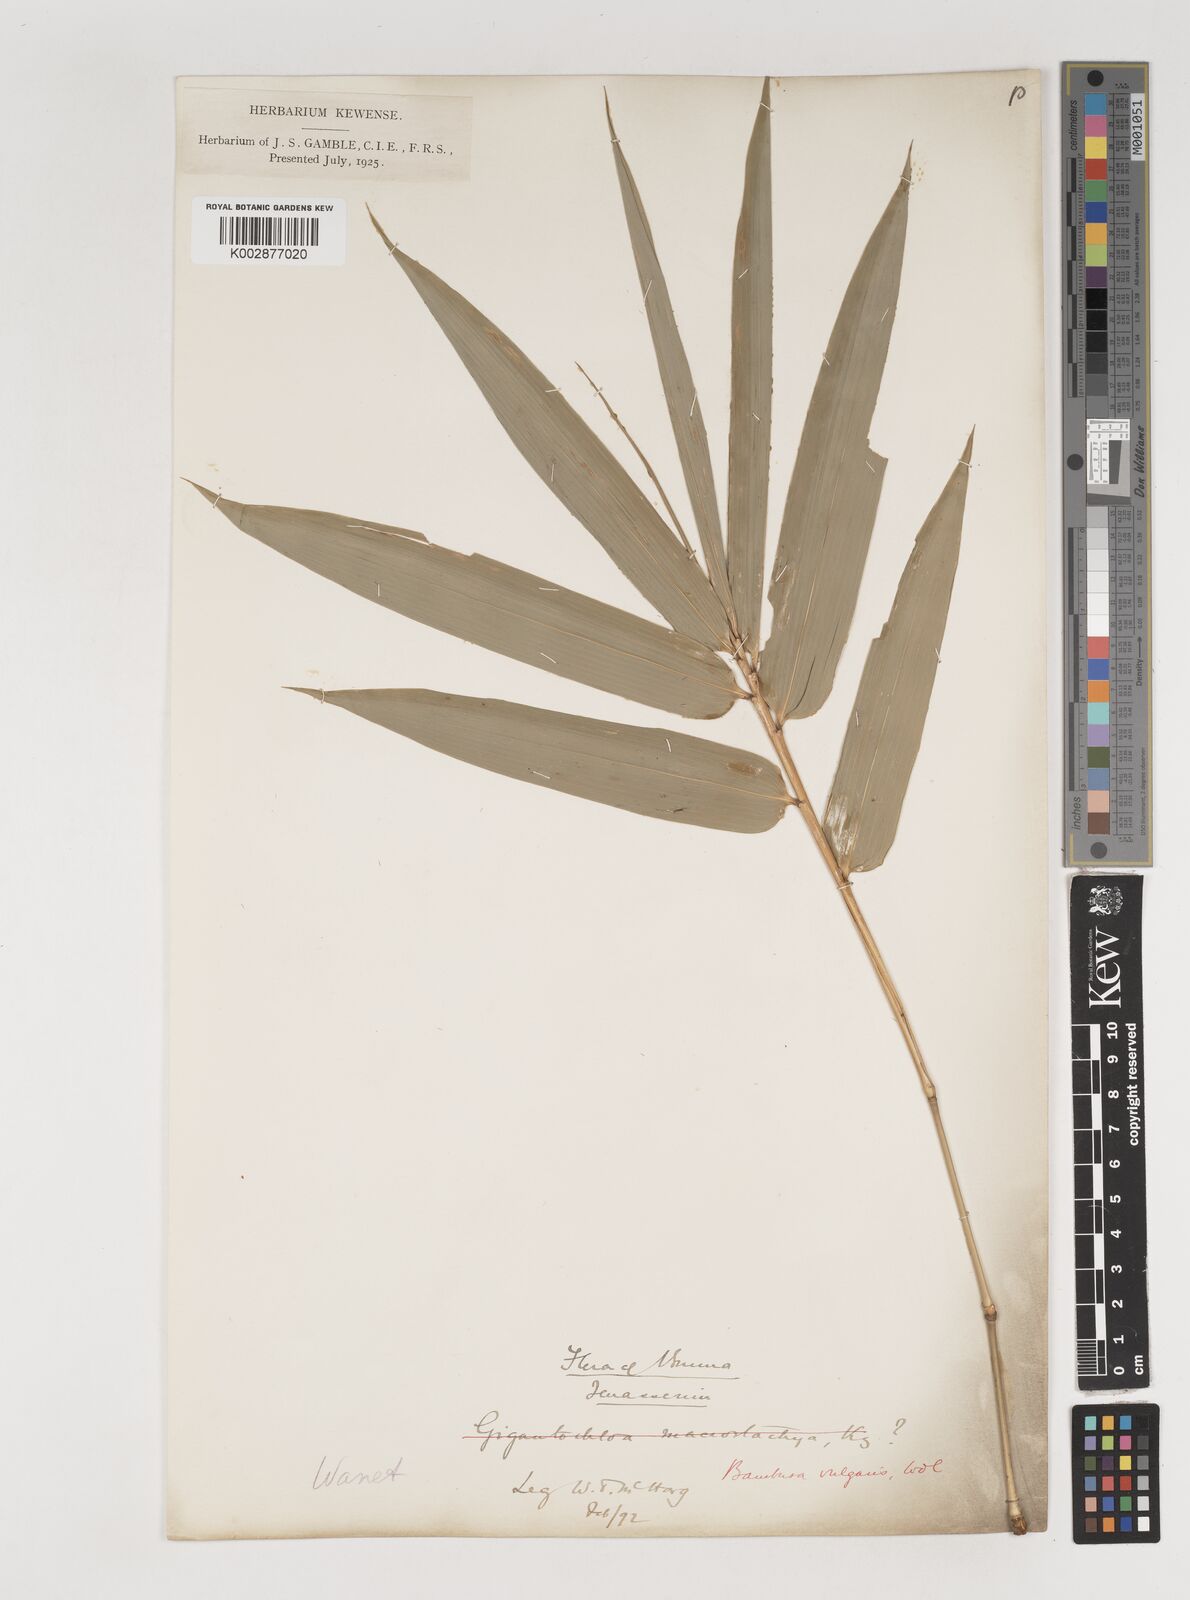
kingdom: Plantae
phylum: Tracheophyta
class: Liliopsida
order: Poales
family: Poaceae
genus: Bambusa
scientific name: Bambusa vulgaris
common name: Common bamboo
